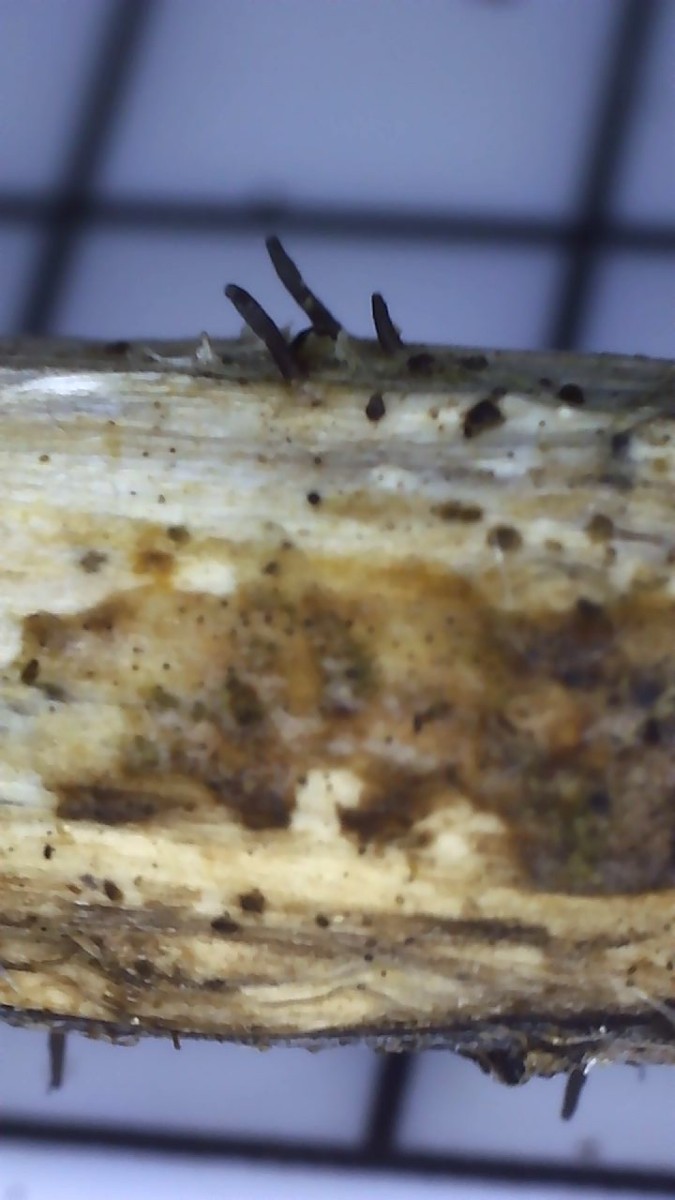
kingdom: Fungi
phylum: Ascomycota
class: Dothideomycetes
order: Acrospermales
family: Acrospermaceae
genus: Acrospermum
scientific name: Acrospermum compressum
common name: nælde-stængeltunge
